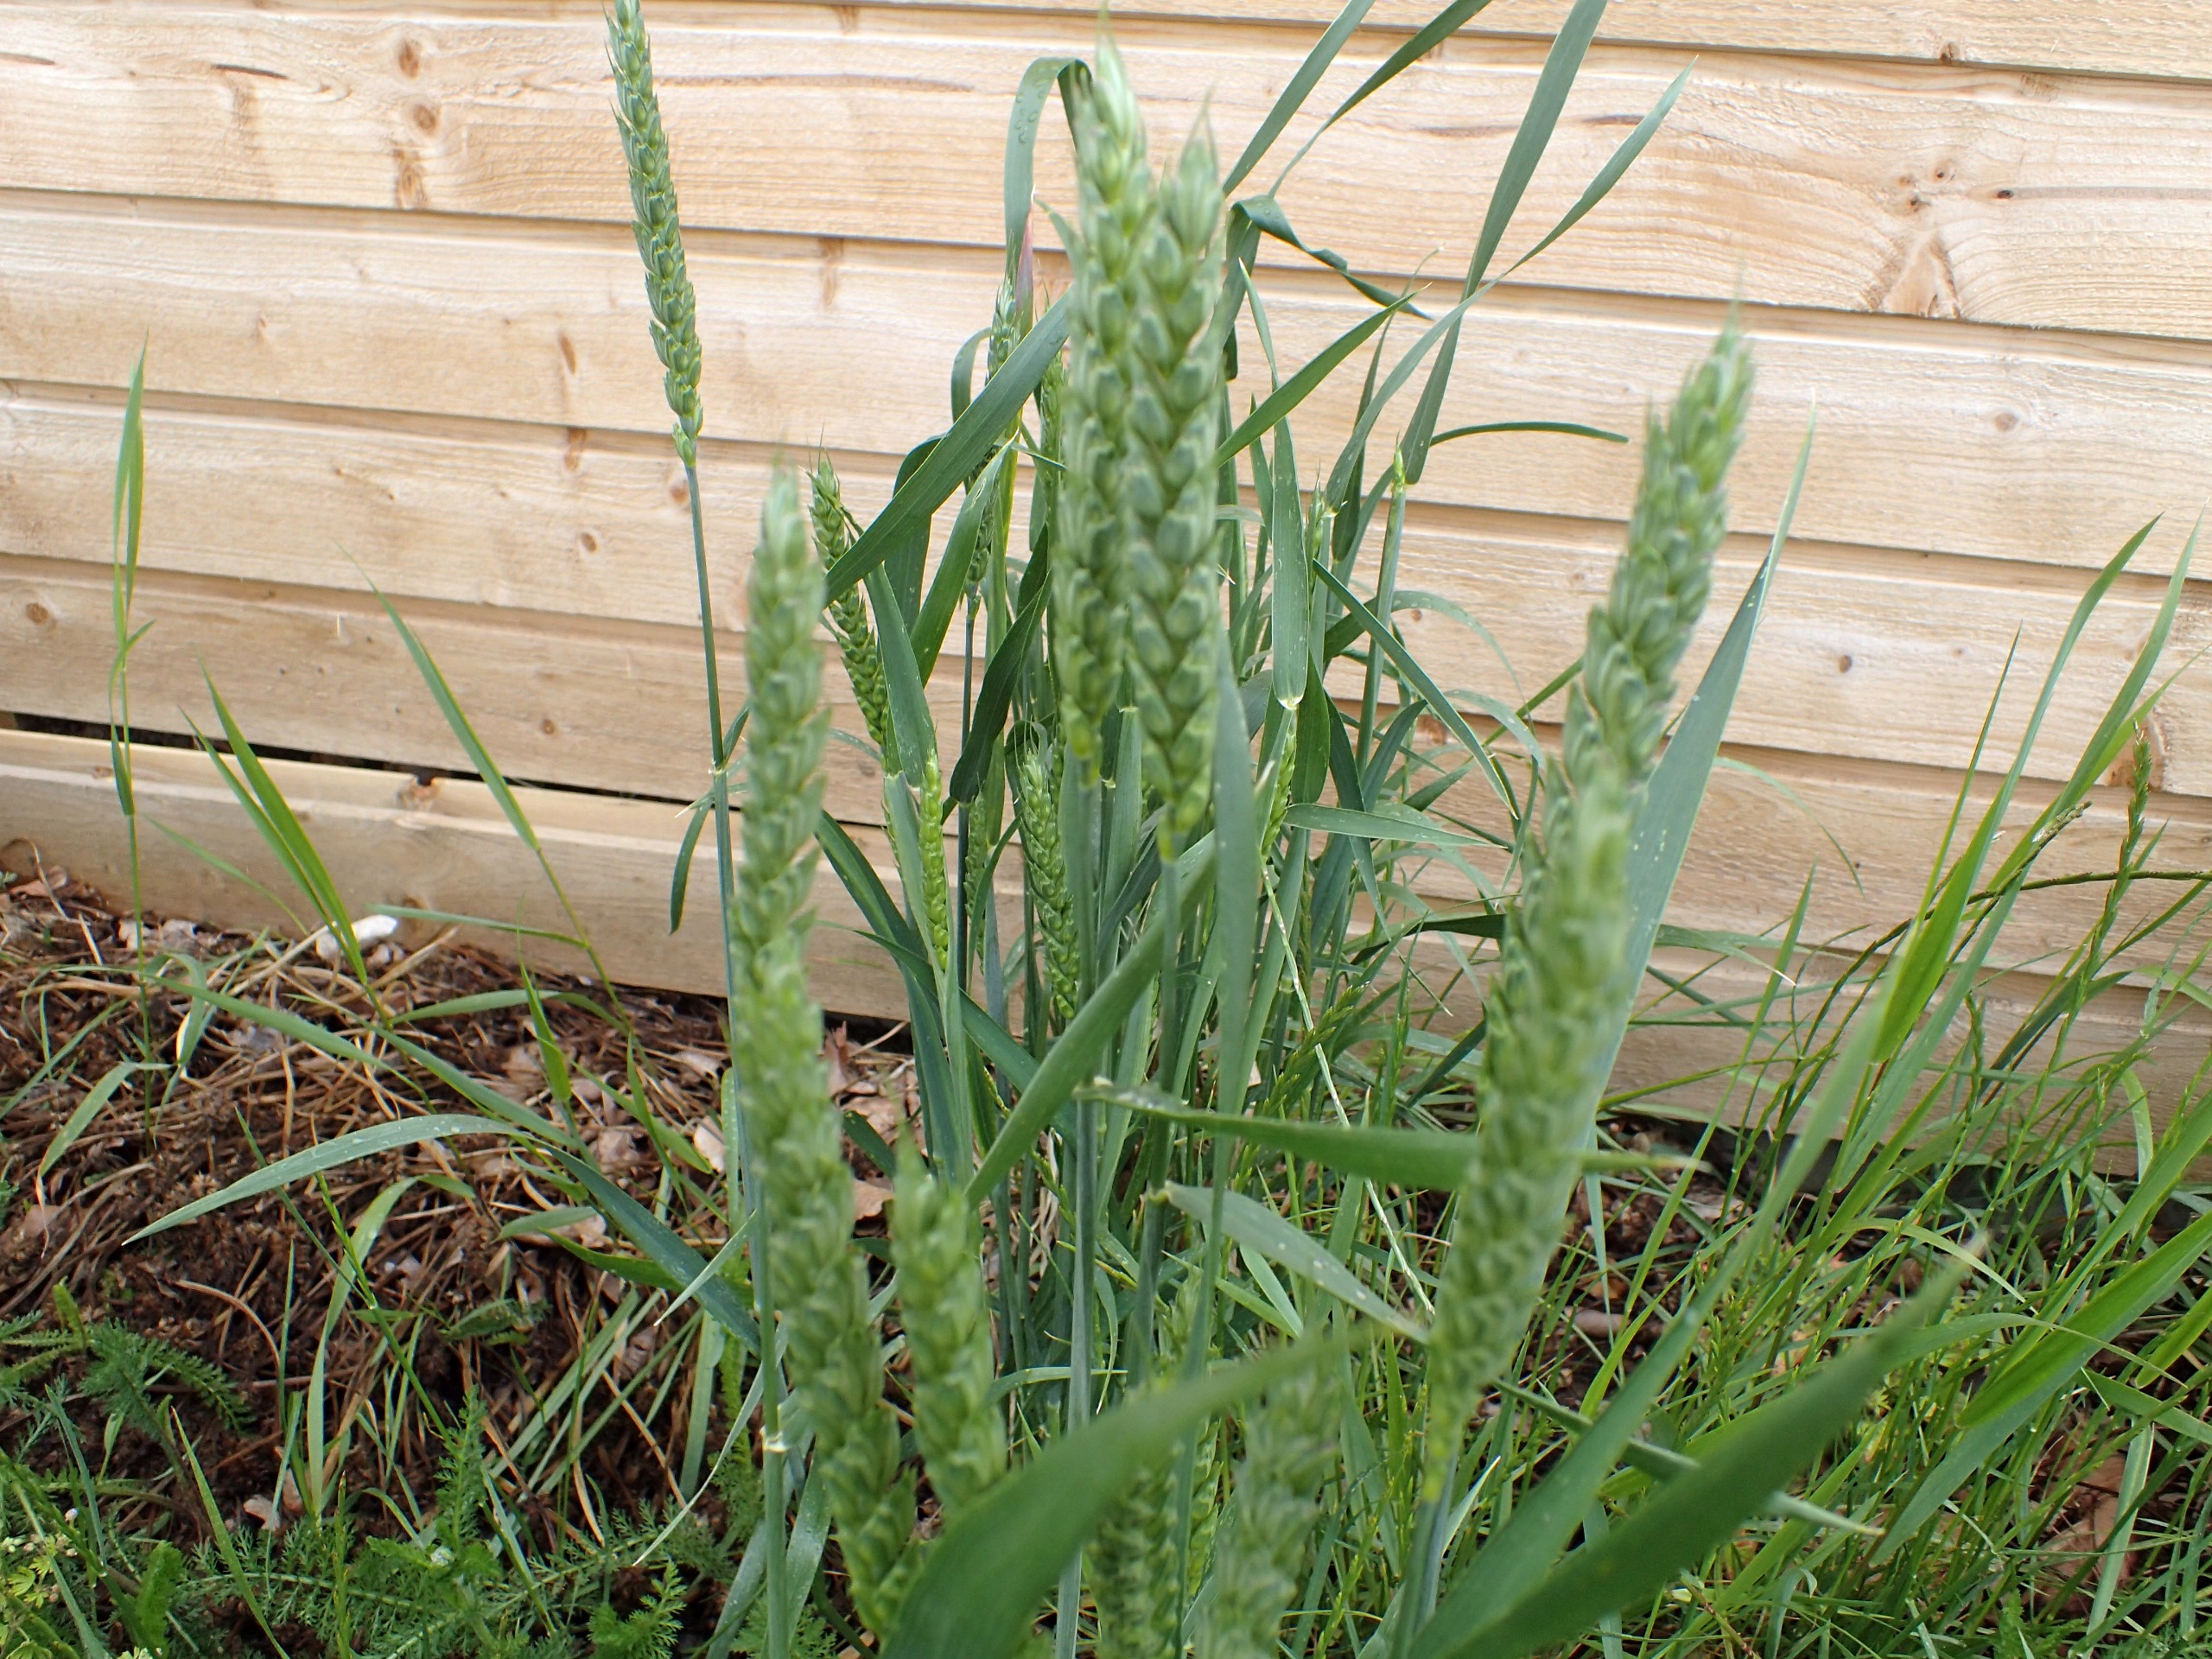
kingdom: Plantae
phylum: Tracheophyta
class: Liliopsida
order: Poales
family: Poaceae
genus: Triticum
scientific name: Triticum aestivum
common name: Almindelig hvede
